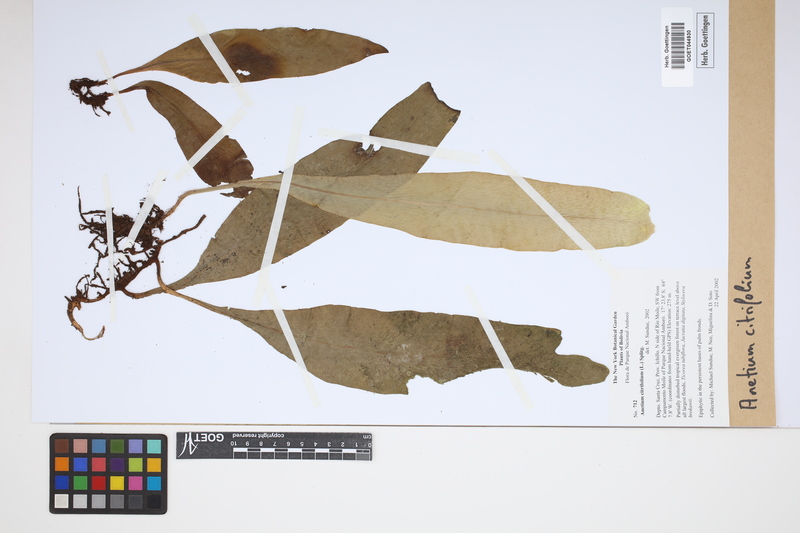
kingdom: Plantae
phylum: Tracheophyta
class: Polypodiopsida
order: Polypodiales
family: Pteridaceae
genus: Polytaenium
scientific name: Polytaenium citrifolium
